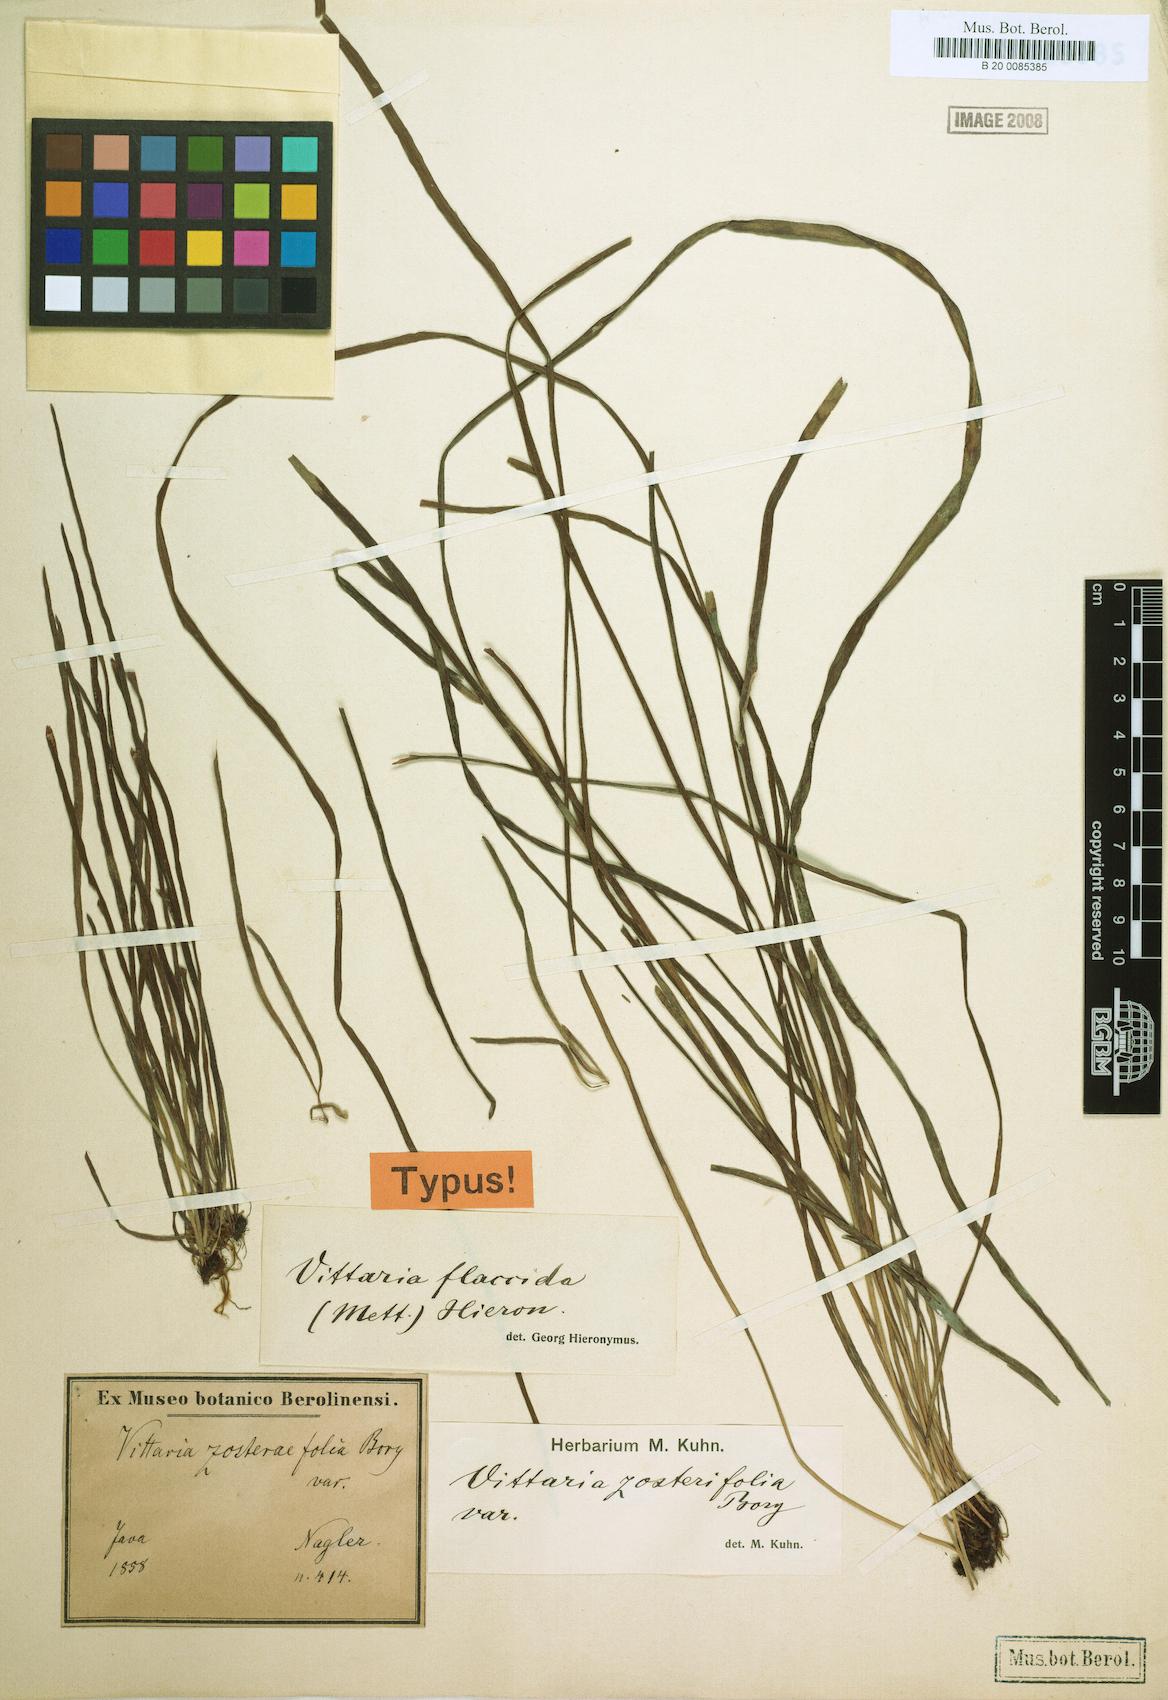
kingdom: Plantae
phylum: Tracheophyta
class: Polypodiopsida
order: Polypodiales
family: Pteridaceae
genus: Haplopteris
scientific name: Haplopteris elongata
